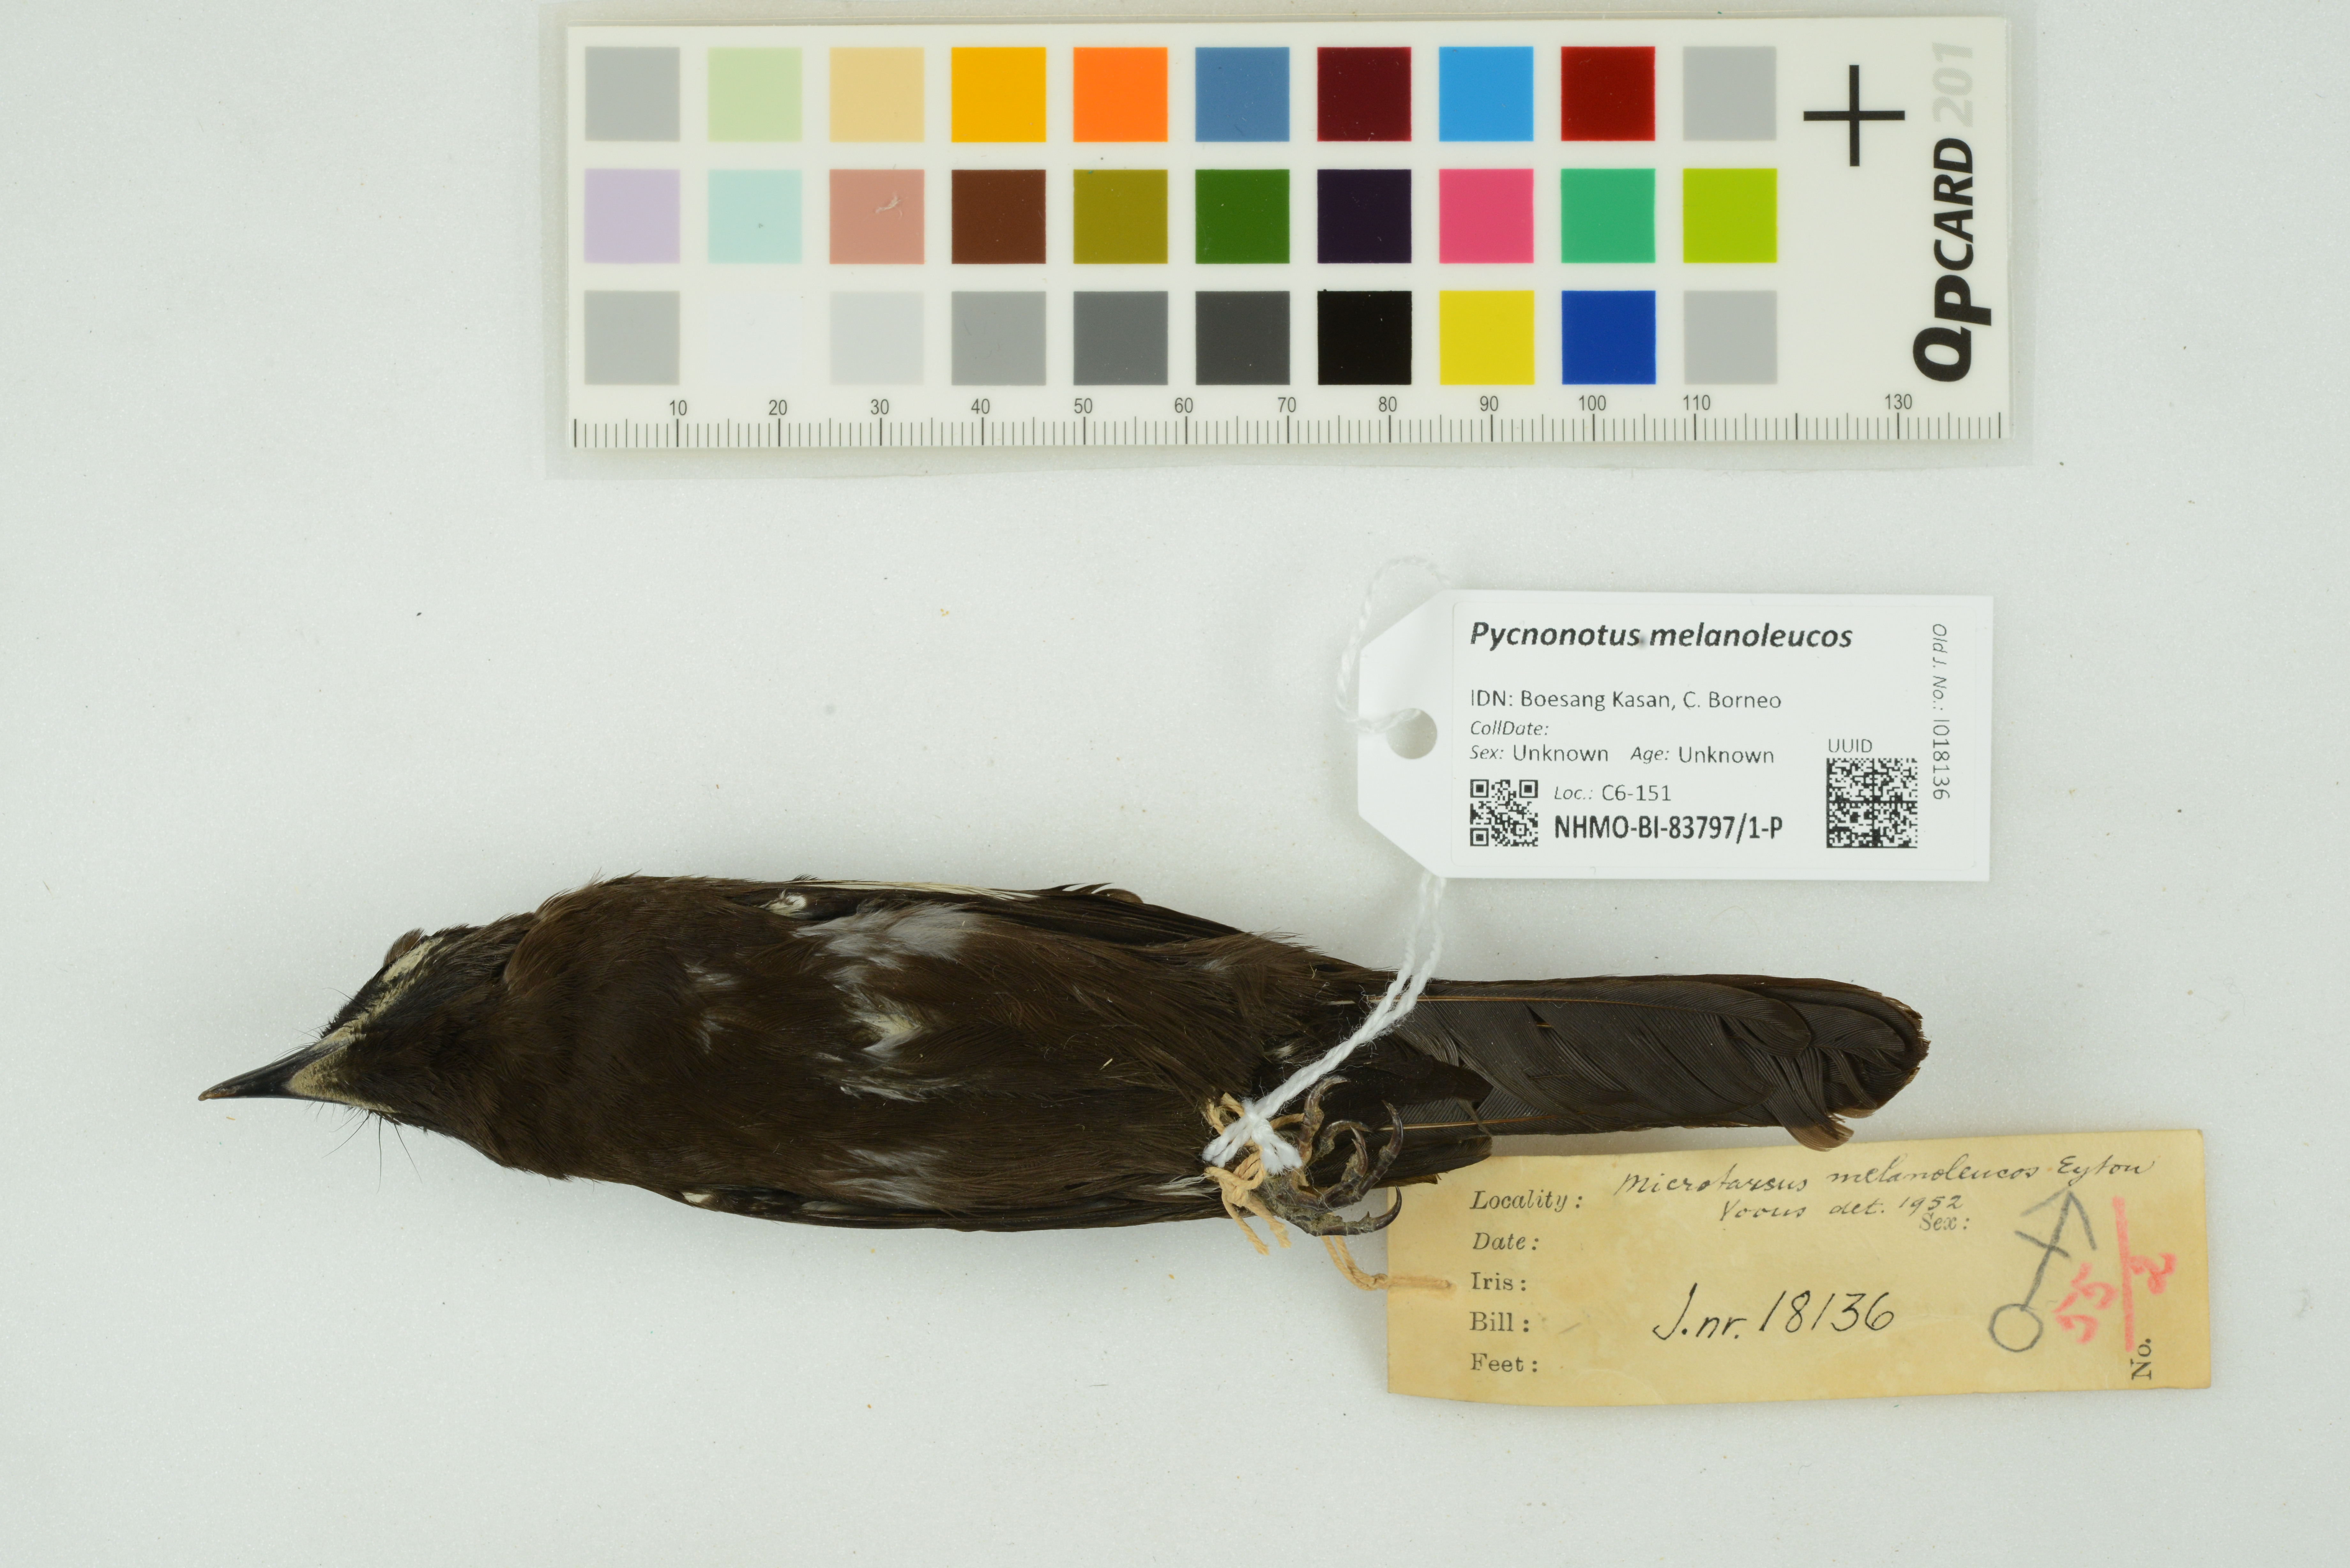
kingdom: Animalia
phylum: Chordata
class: Aves
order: Passeriformes
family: Pycnonotidae
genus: Pycnonotus
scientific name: Pycnonotus melanoleucos
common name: Black-and-white bulbul
